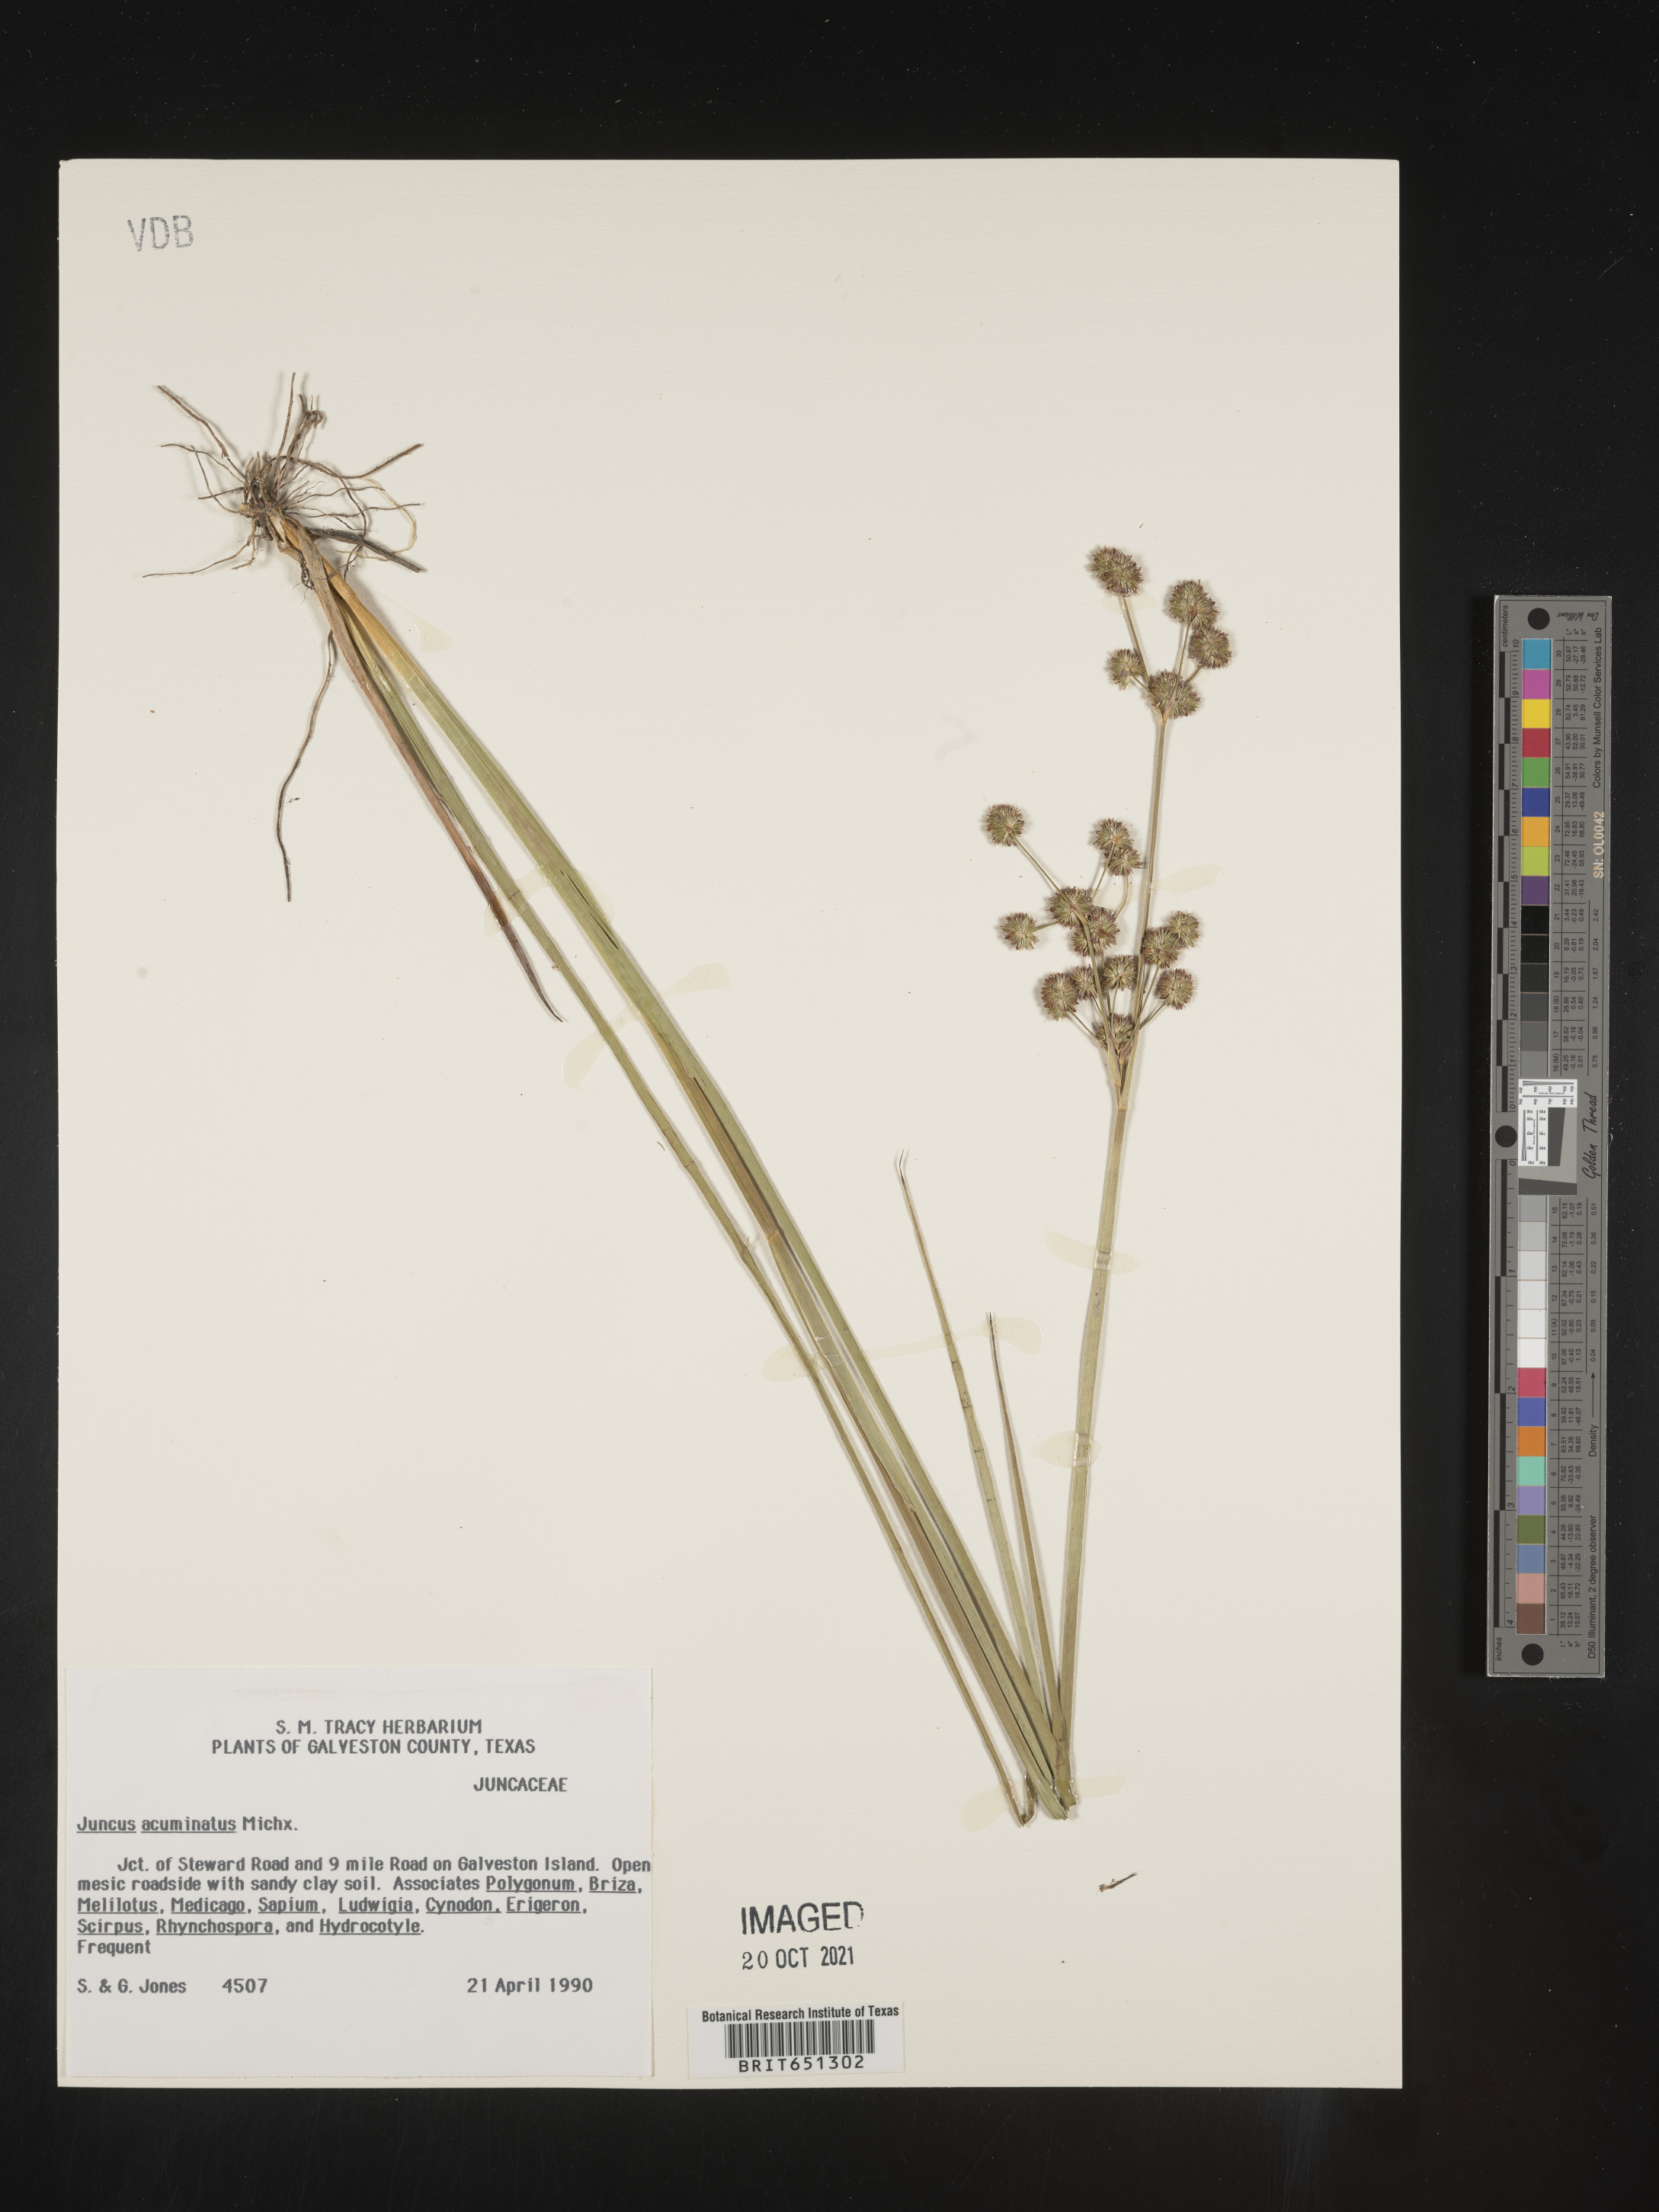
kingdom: Plantae
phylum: Tracheophyta
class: Liliopsida
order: Poales
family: Juncaceae
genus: Juncus
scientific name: Juncus acuminatus
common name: Knotty-leaved rush
